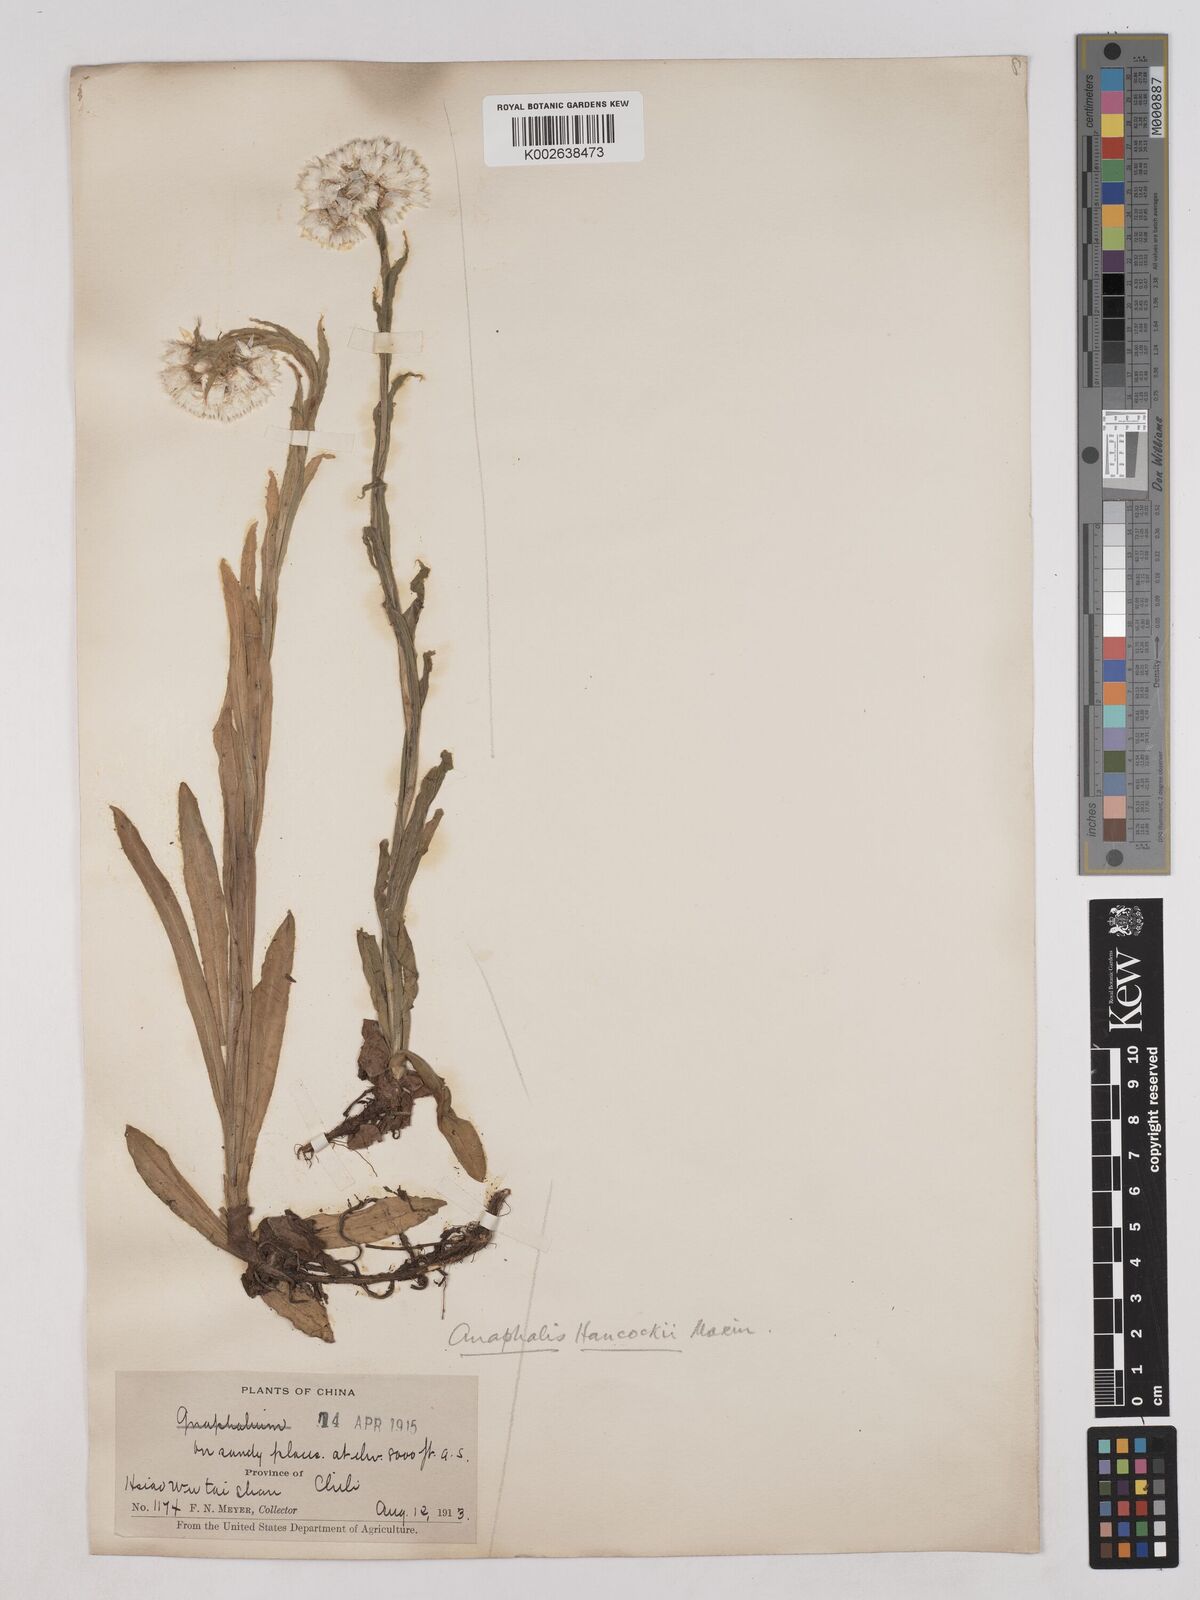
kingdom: Plantae
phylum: Tracheophyta
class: Magnoliopsida
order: Asterales
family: Asteraceae
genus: Anaphalis
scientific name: Anaphalis hancockii
